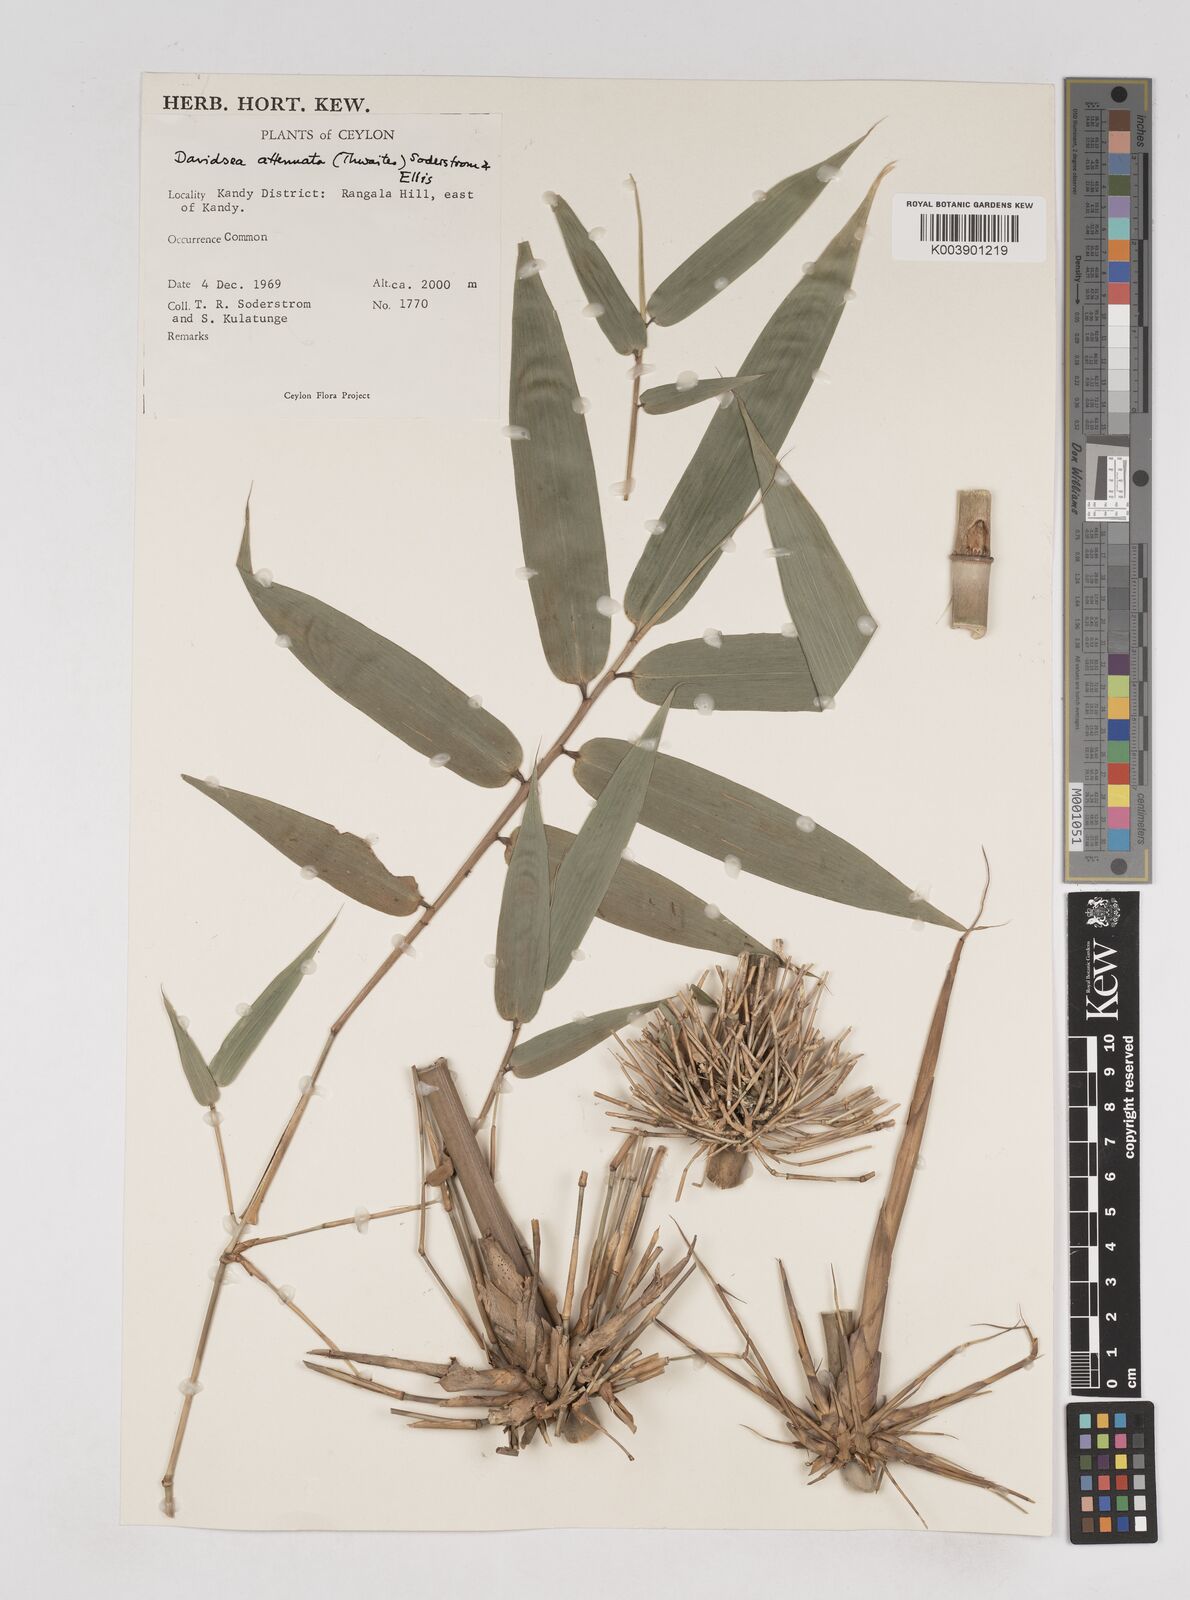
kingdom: Plantae
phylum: Tracheophyta
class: Liliopsida
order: Poales
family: Poaceae
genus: Davidsea
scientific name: Davidsea attenuata
